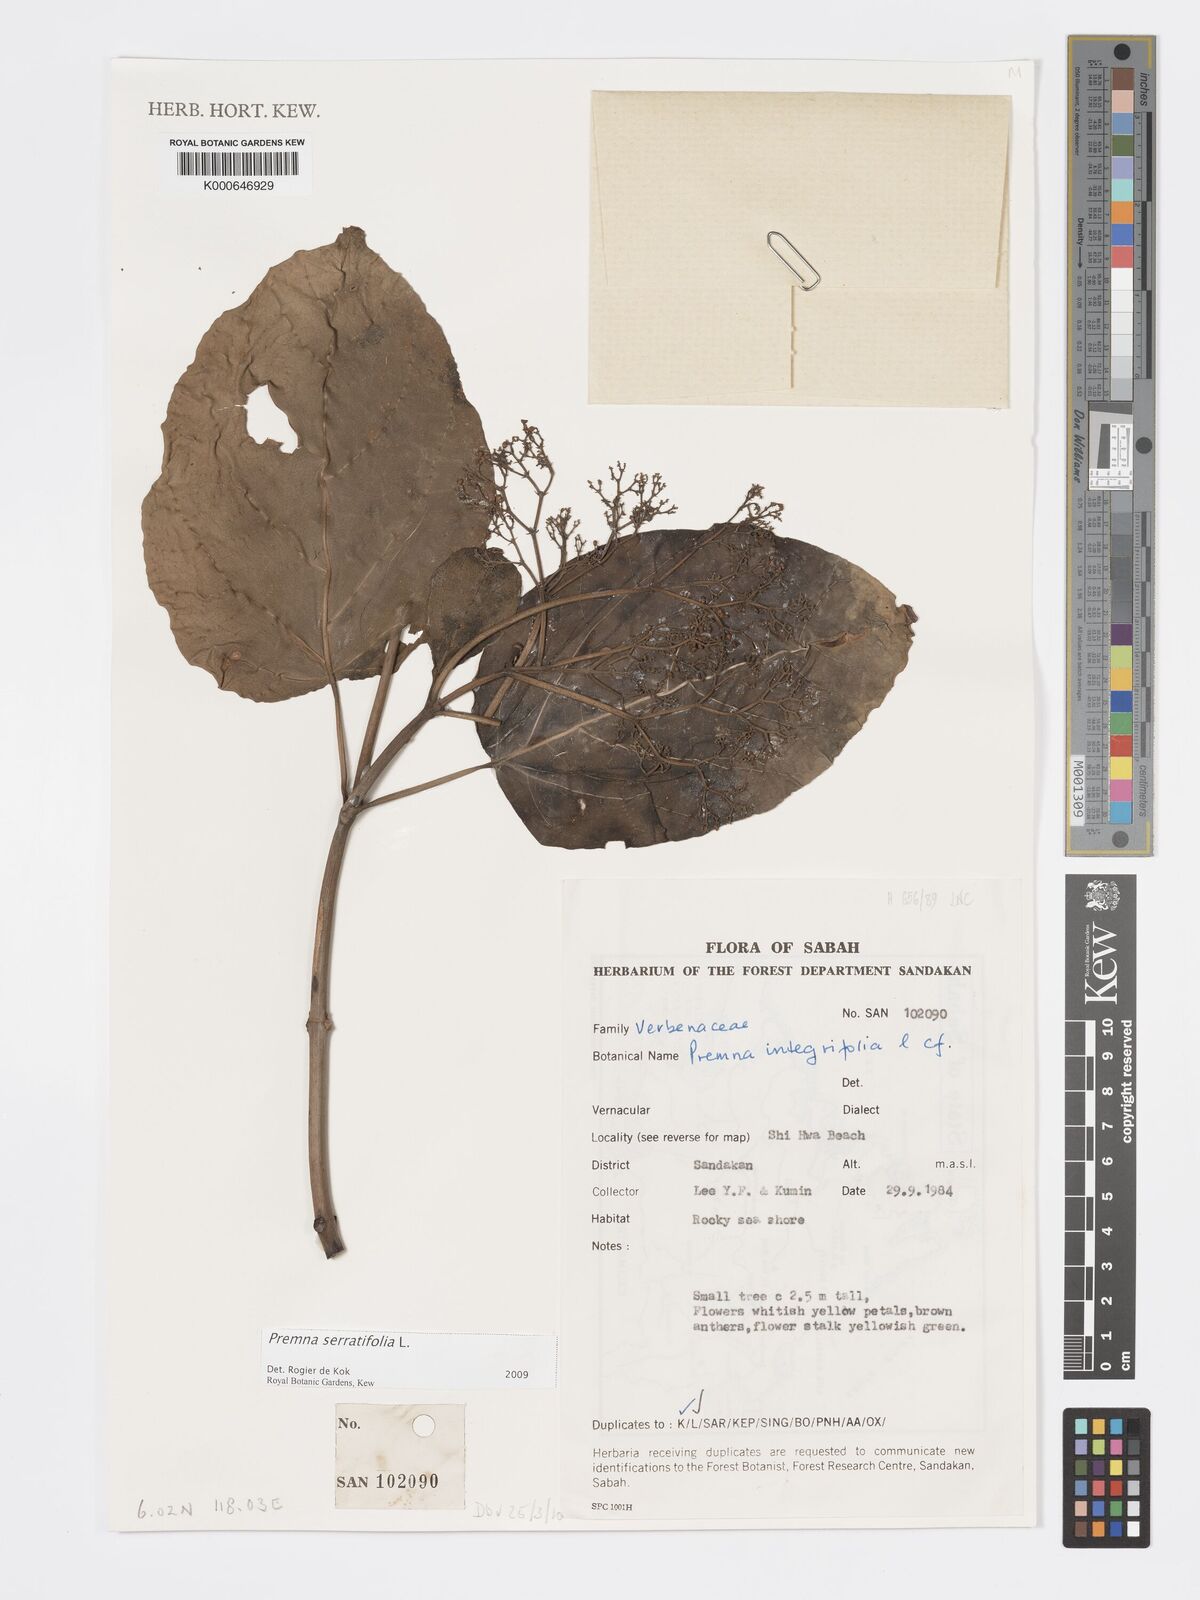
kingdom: Plantae
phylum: Tracheophyta
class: Magnoliopsida
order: Lamiales
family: Lamiaceae
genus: Premna
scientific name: Premna serratifolia
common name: Bastard guelder
